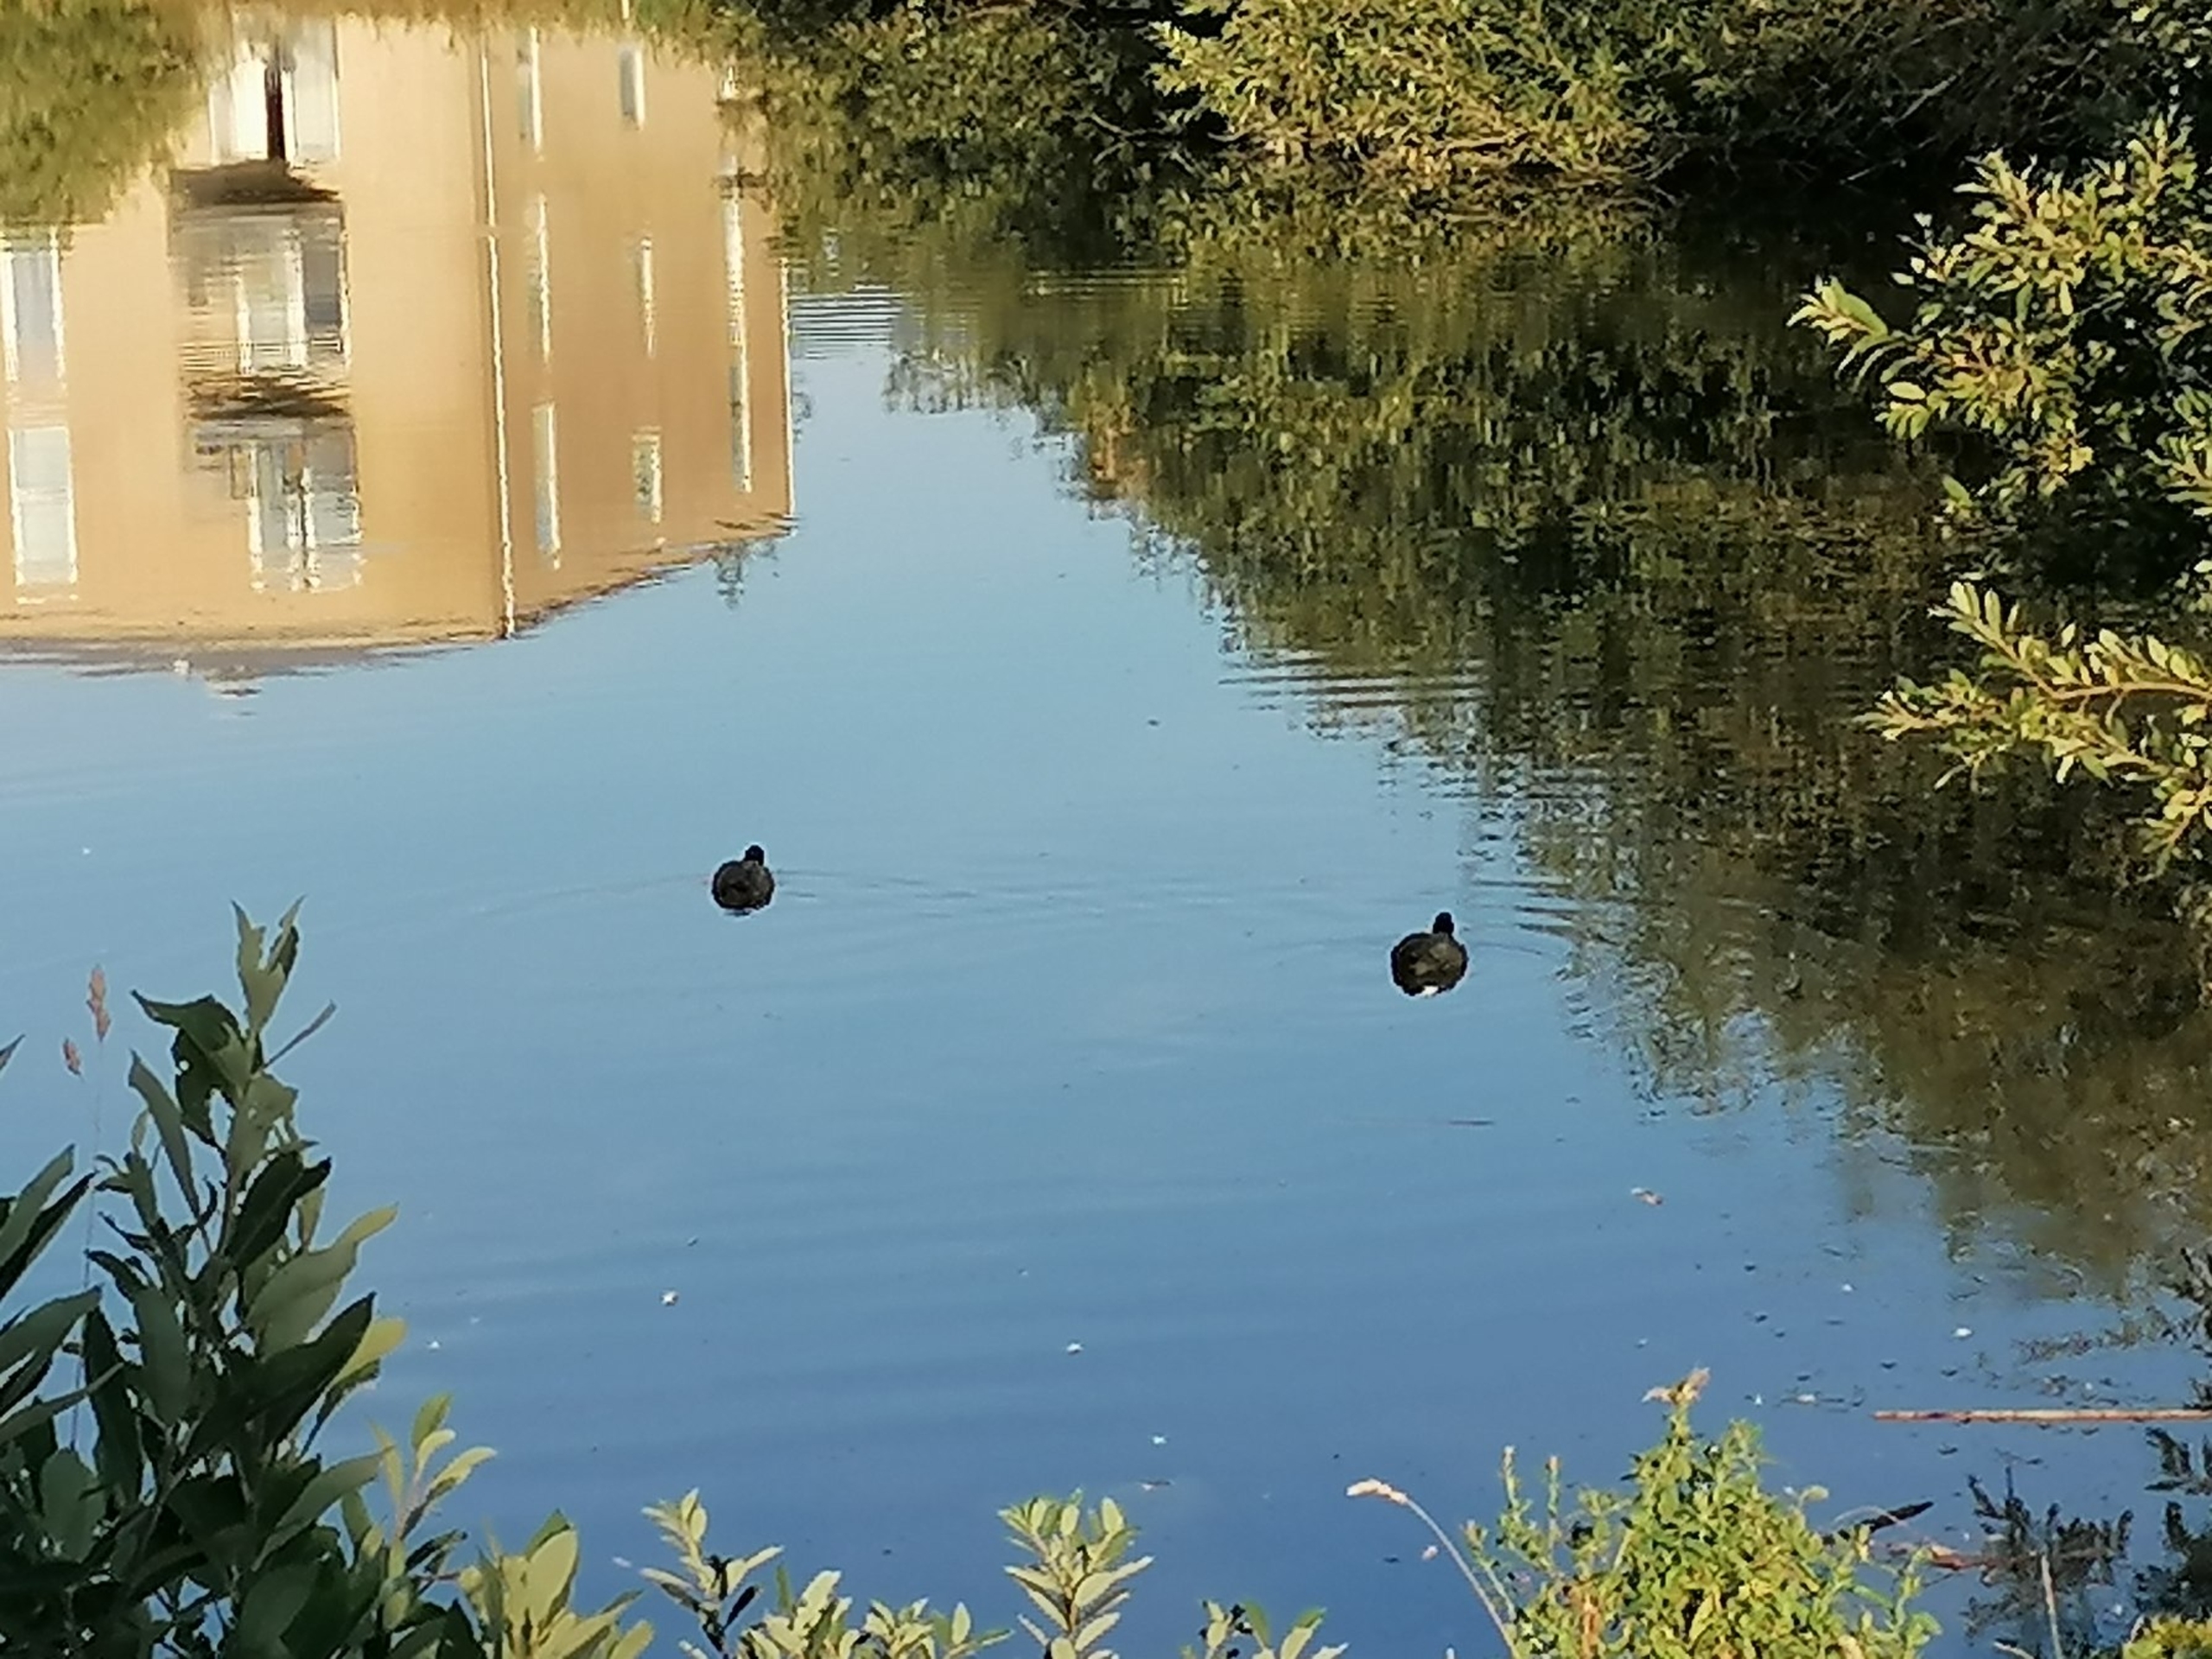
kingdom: Animalia
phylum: Chordata
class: Aves
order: Gruiformes
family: Rallidae
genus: Fulica
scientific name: Fulica atra
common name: Blishøne
